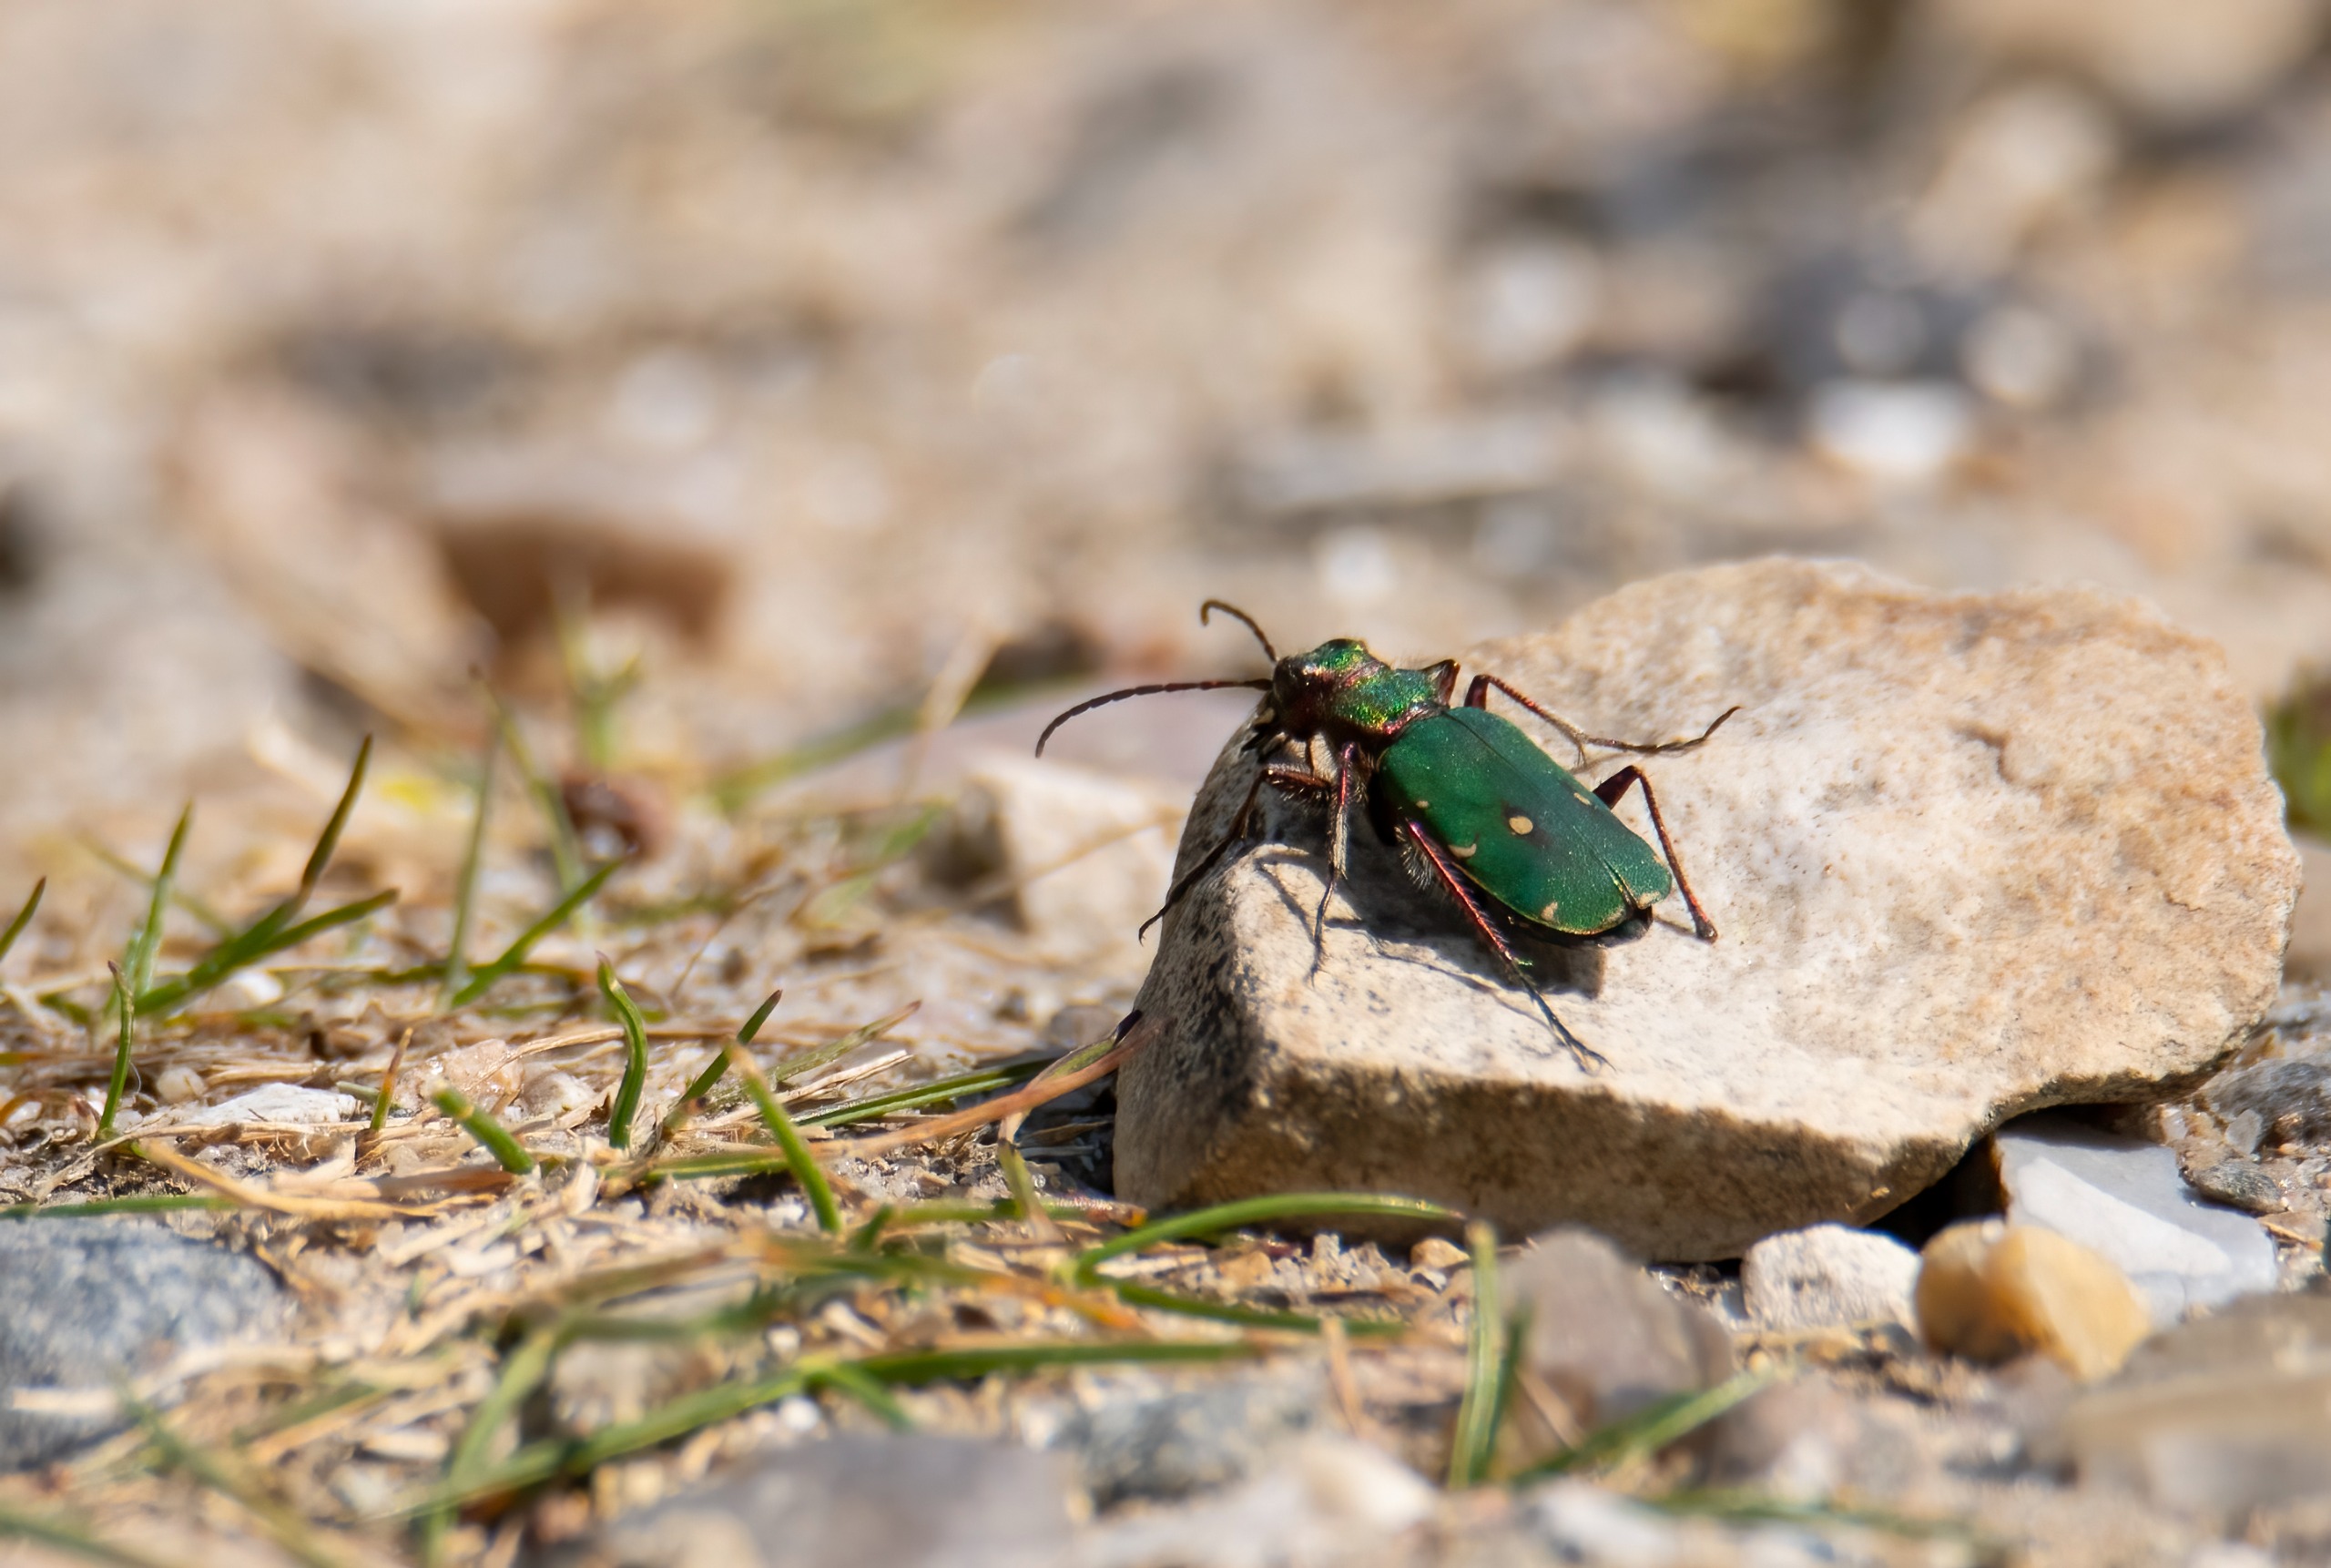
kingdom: Animalia
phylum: Arthropoda
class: Insecta
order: Coleoptera
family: Carabidae
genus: Cicindela
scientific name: Cicindela campestris
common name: Grøn sandspringer
